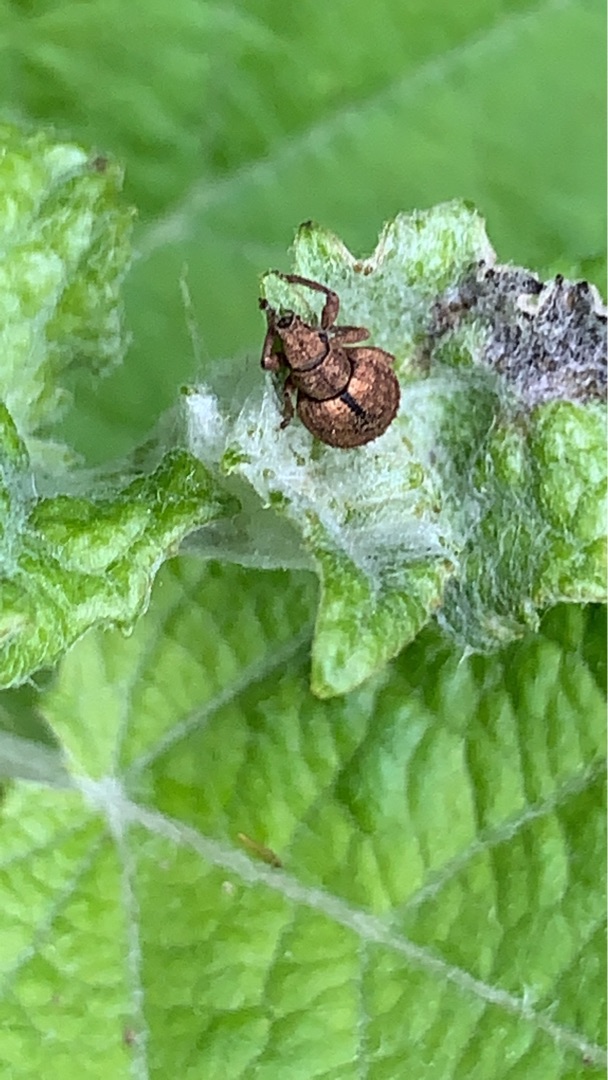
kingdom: Animalia
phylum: Arthropoda
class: Insecta
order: Coleoptera
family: Curculionidae
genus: Strophosoma
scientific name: Strophosoma melanogrammum
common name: Stribet gråsnude
